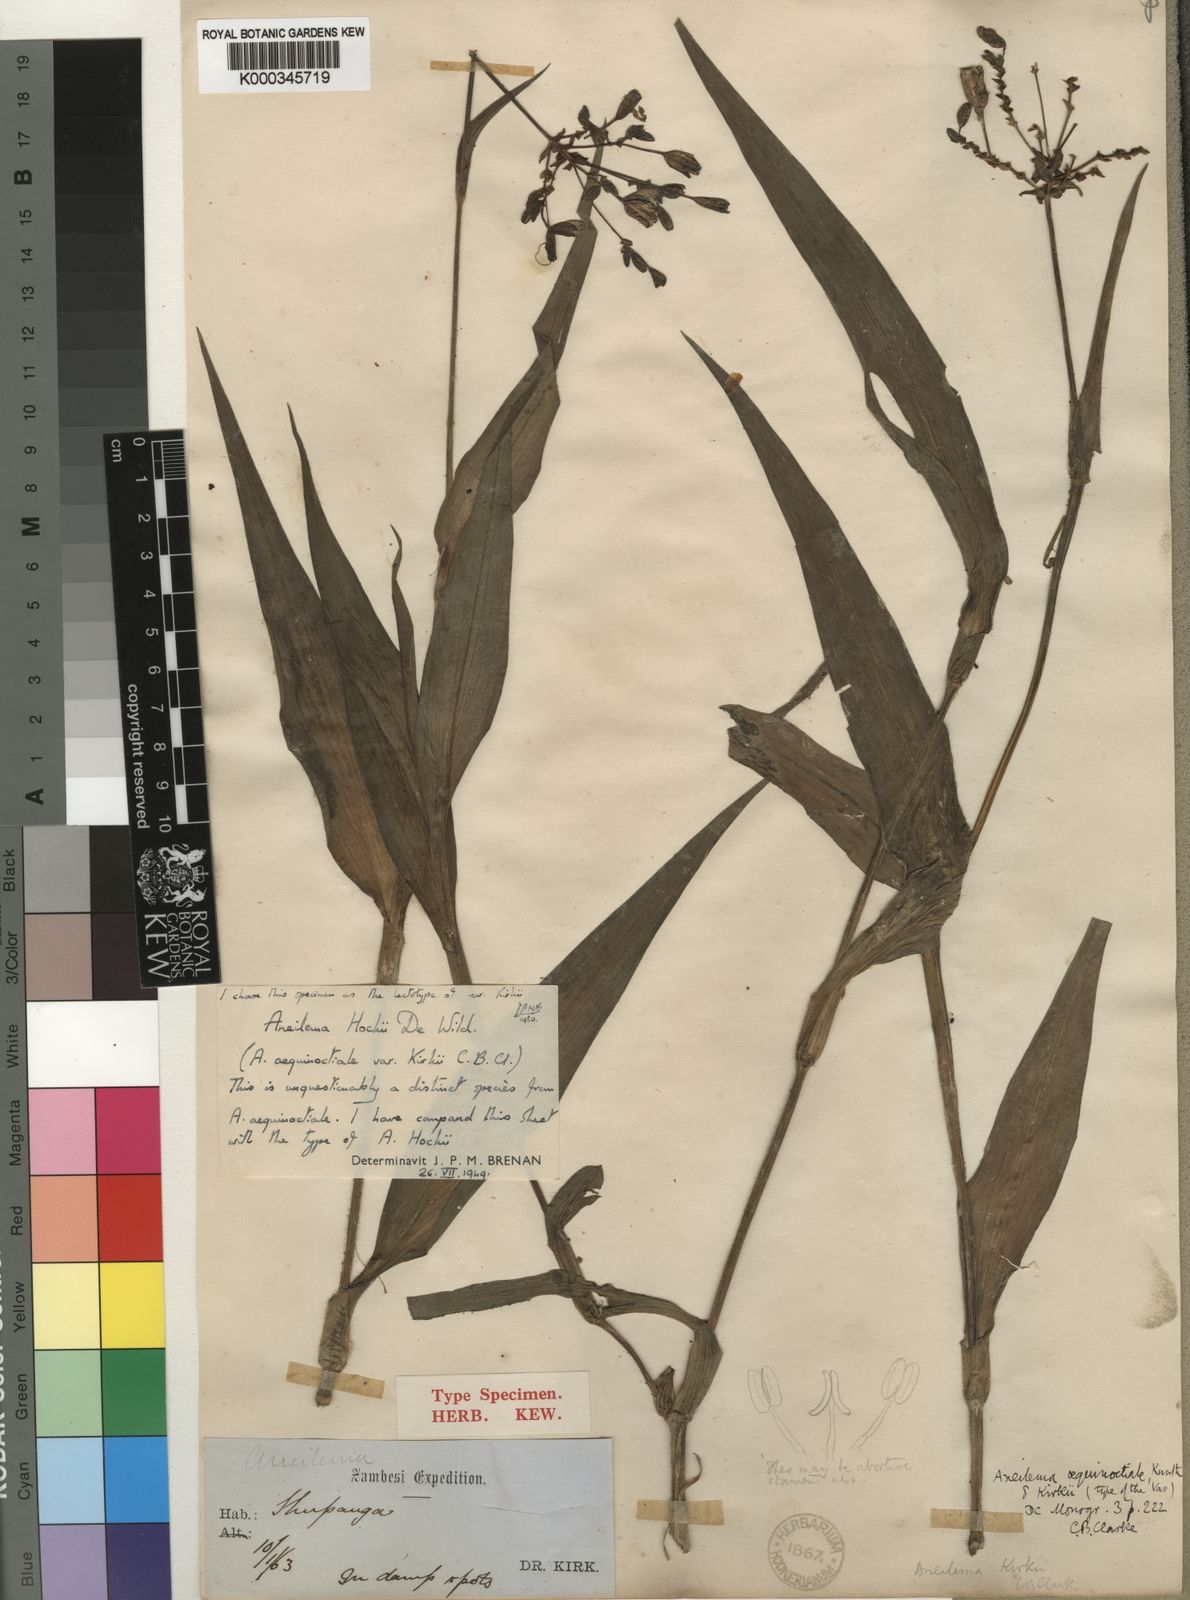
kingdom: Plantae
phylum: Tracheophyta
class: Liliopsida
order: Commelinales
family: Commelinaceae
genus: Aneilema
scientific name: Aneilema hockii
